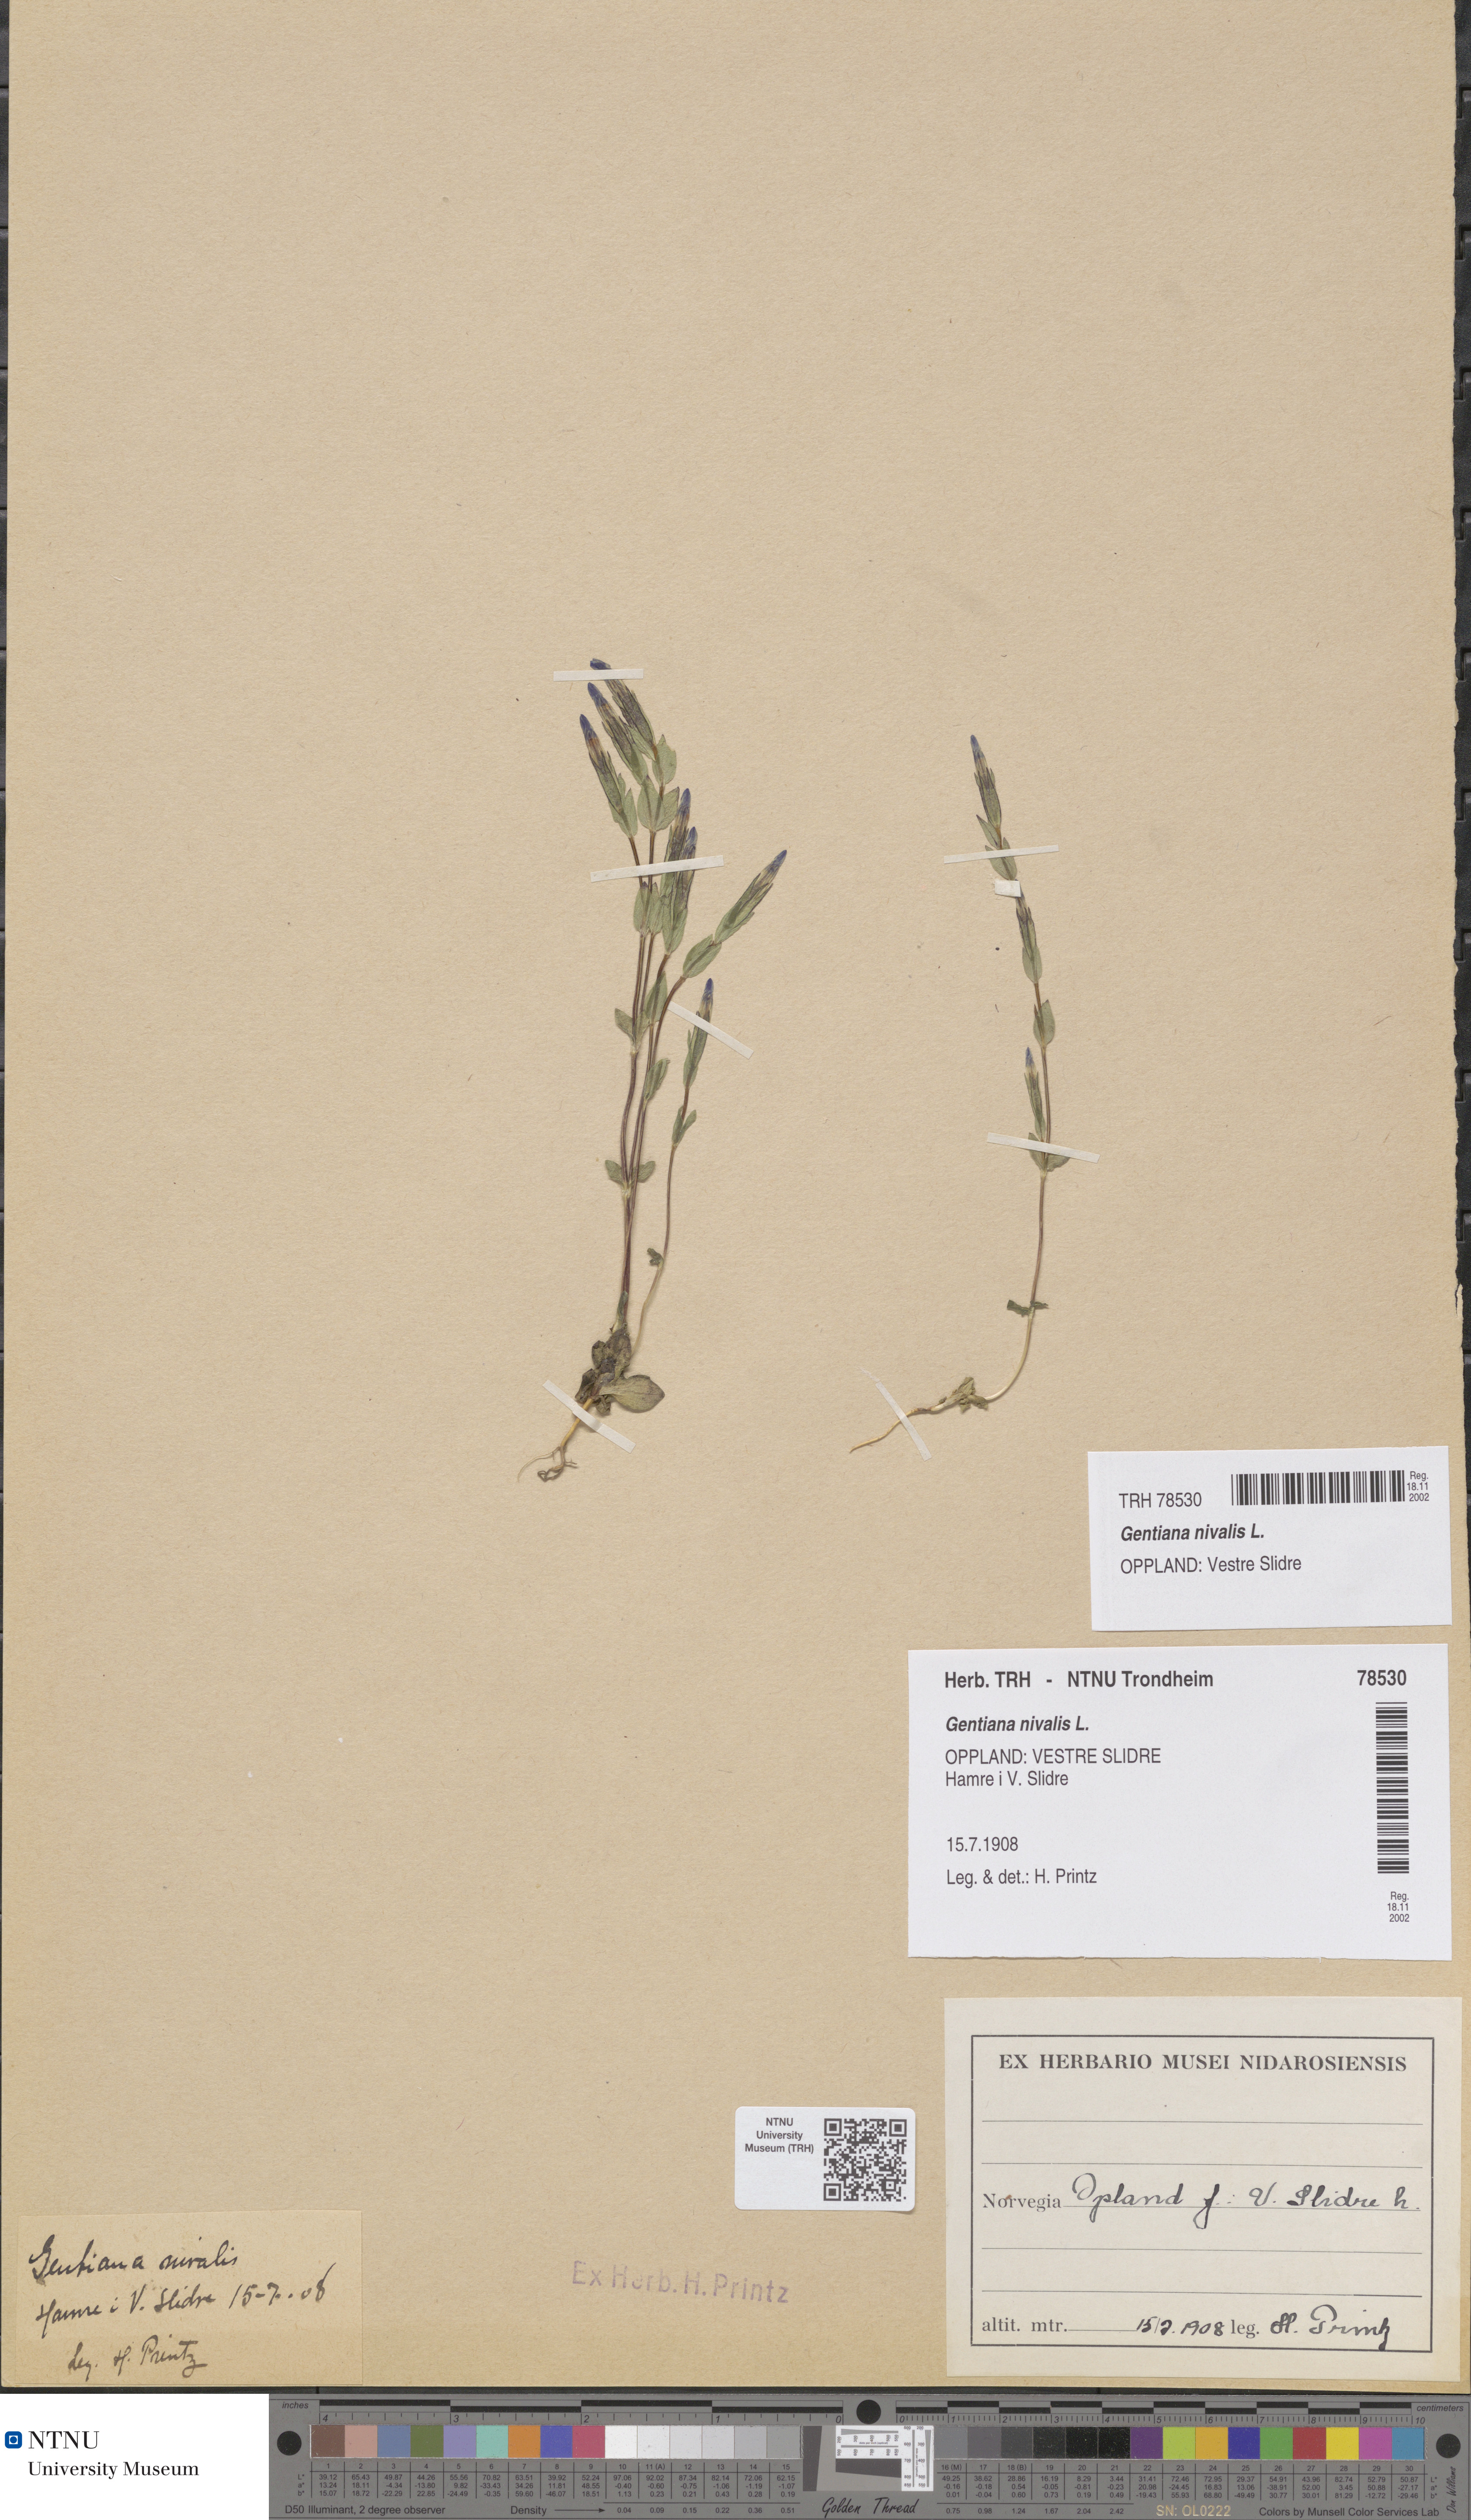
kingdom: Plantae
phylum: Tracheophyta
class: Magnoliopsida
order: Gentianales
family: Gentianaceae
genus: Gentiana
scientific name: Gentiana nivalis
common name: Alpine gentian
